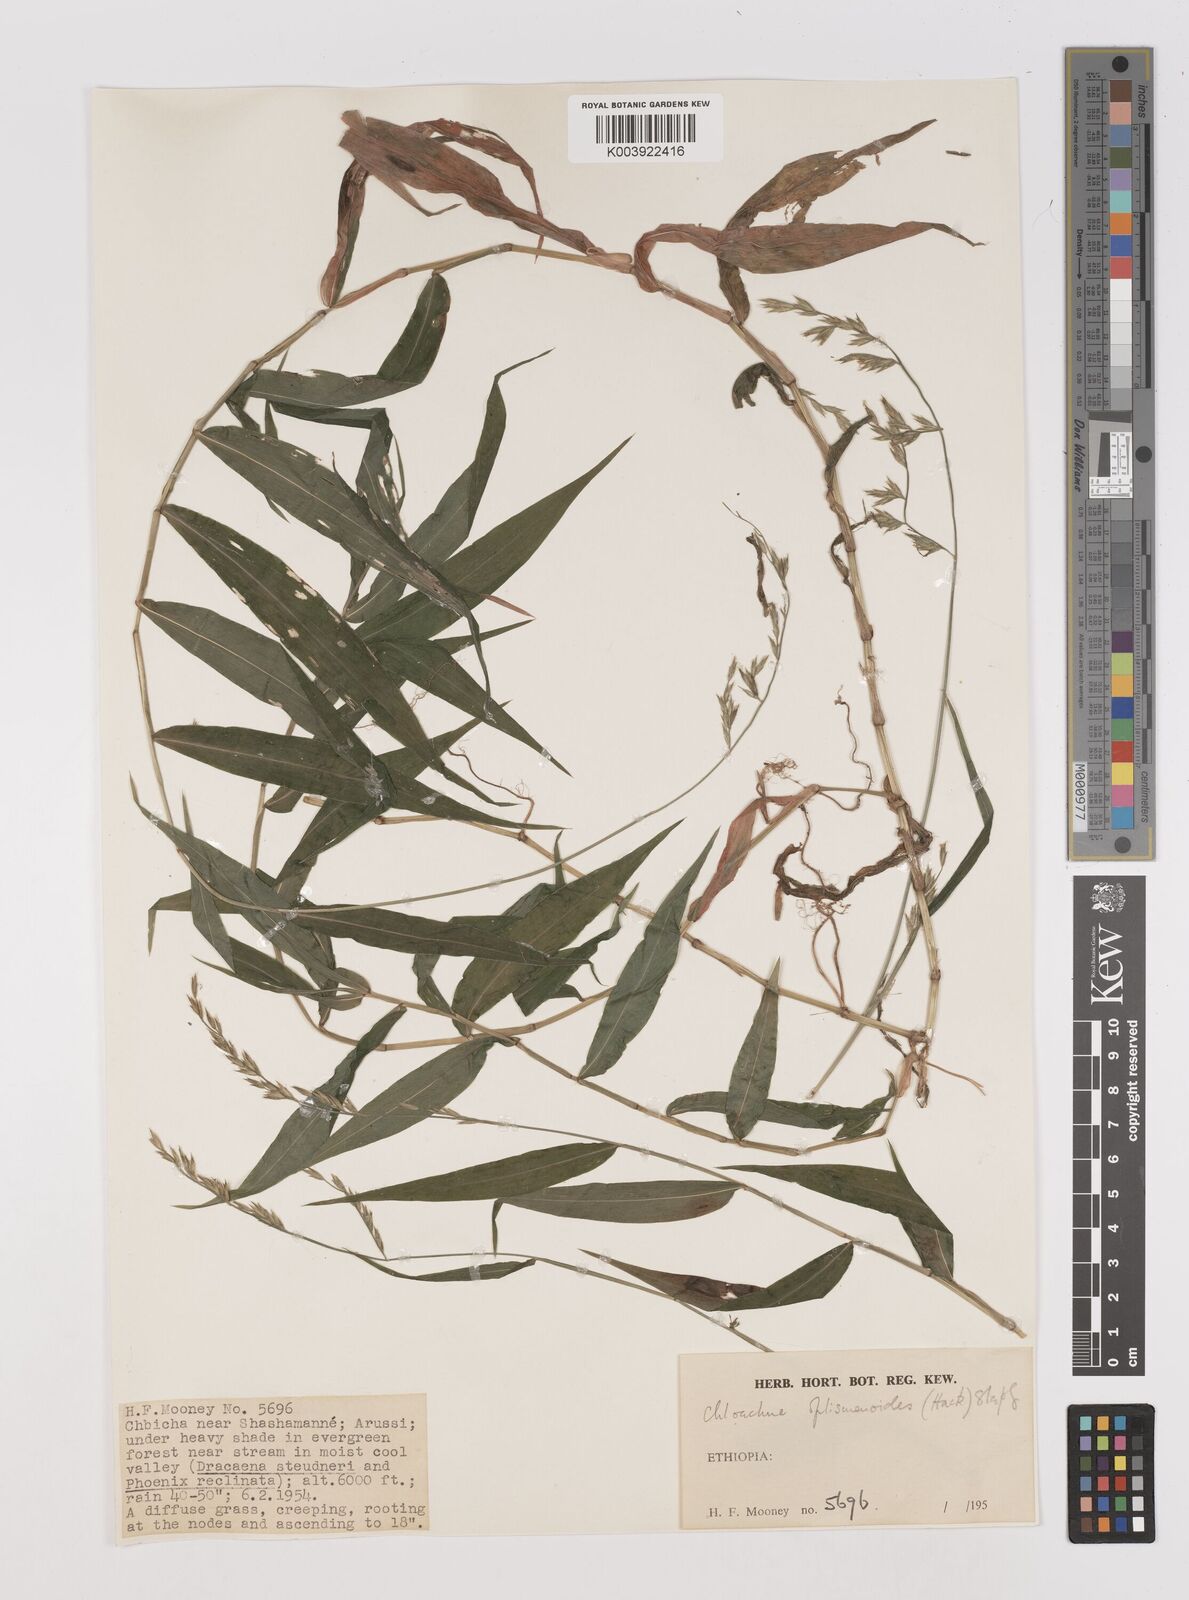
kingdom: Plantae
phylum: Tracheophyta
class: Liliopsida
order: Poales
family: Poaceae
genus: Poecilostachys
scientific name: Poecilostachys oplismenoides
